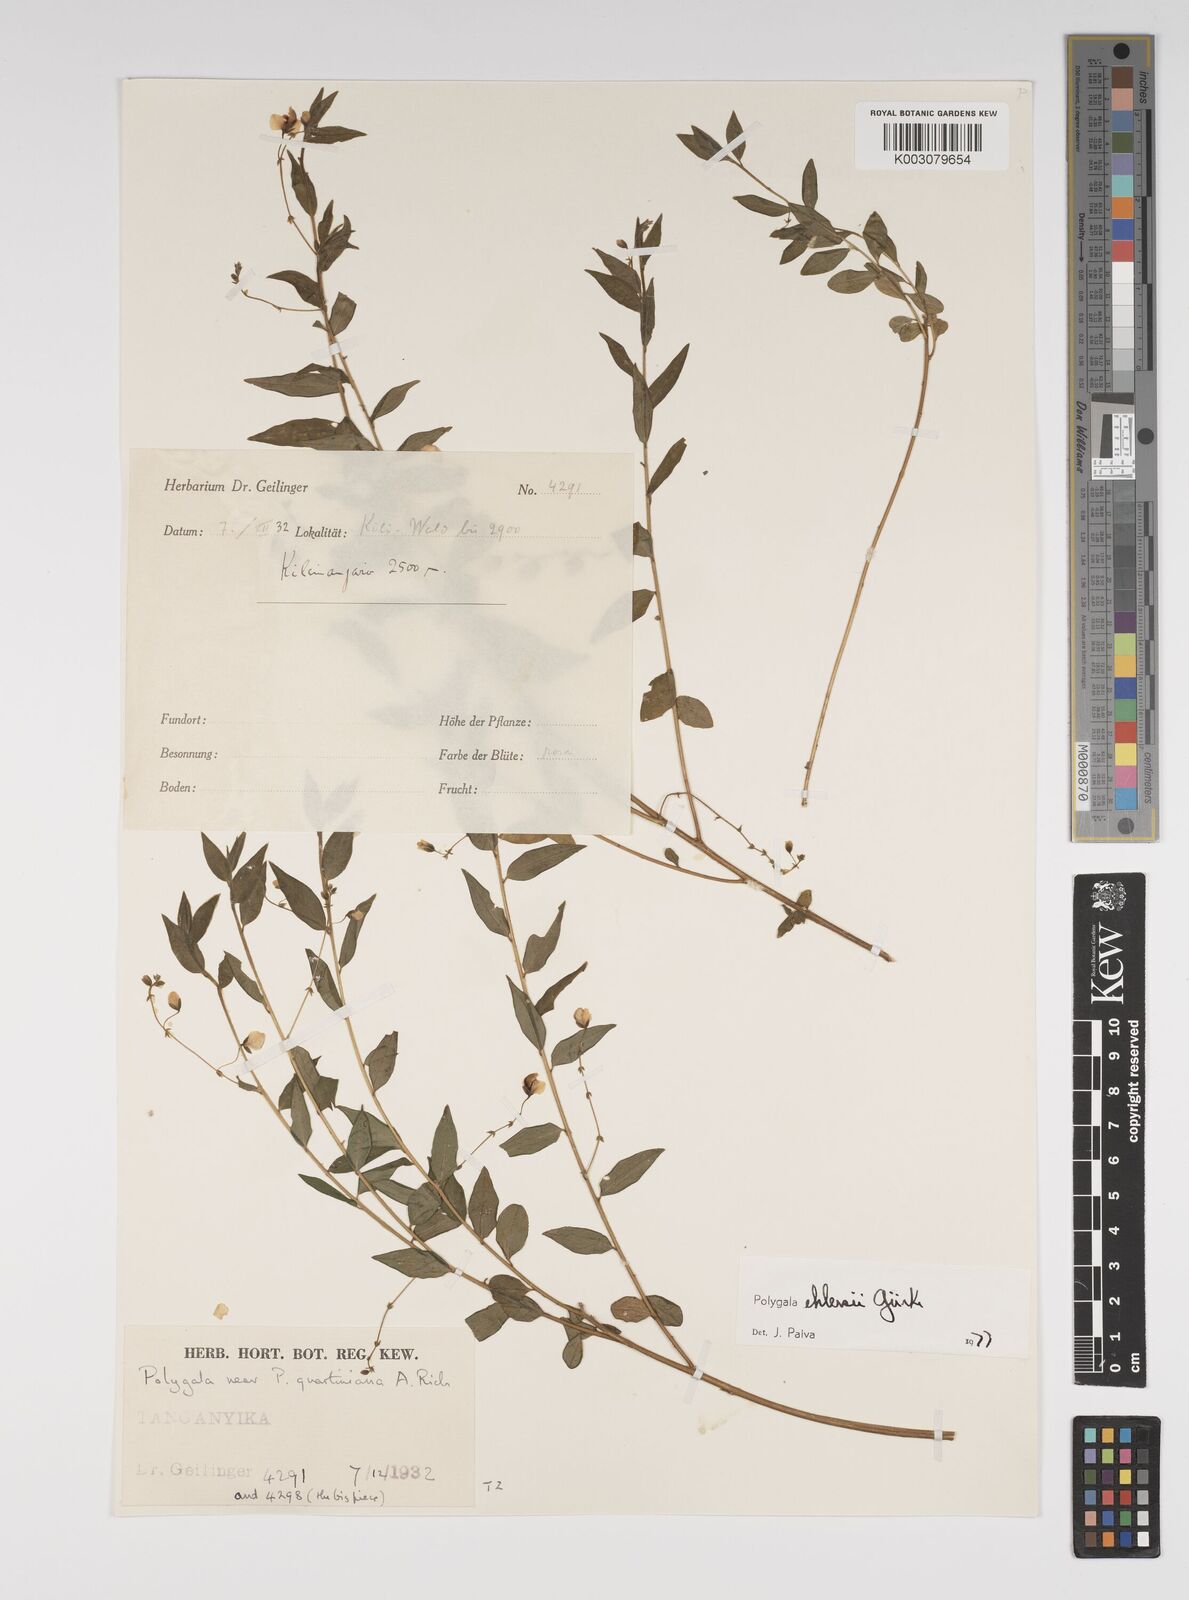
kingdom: Plantae
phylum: Tracheophyta
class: Magnoliopsida
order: Fabales
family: Polygalaceae
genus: Polygala
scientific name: Polygala ehlersii
